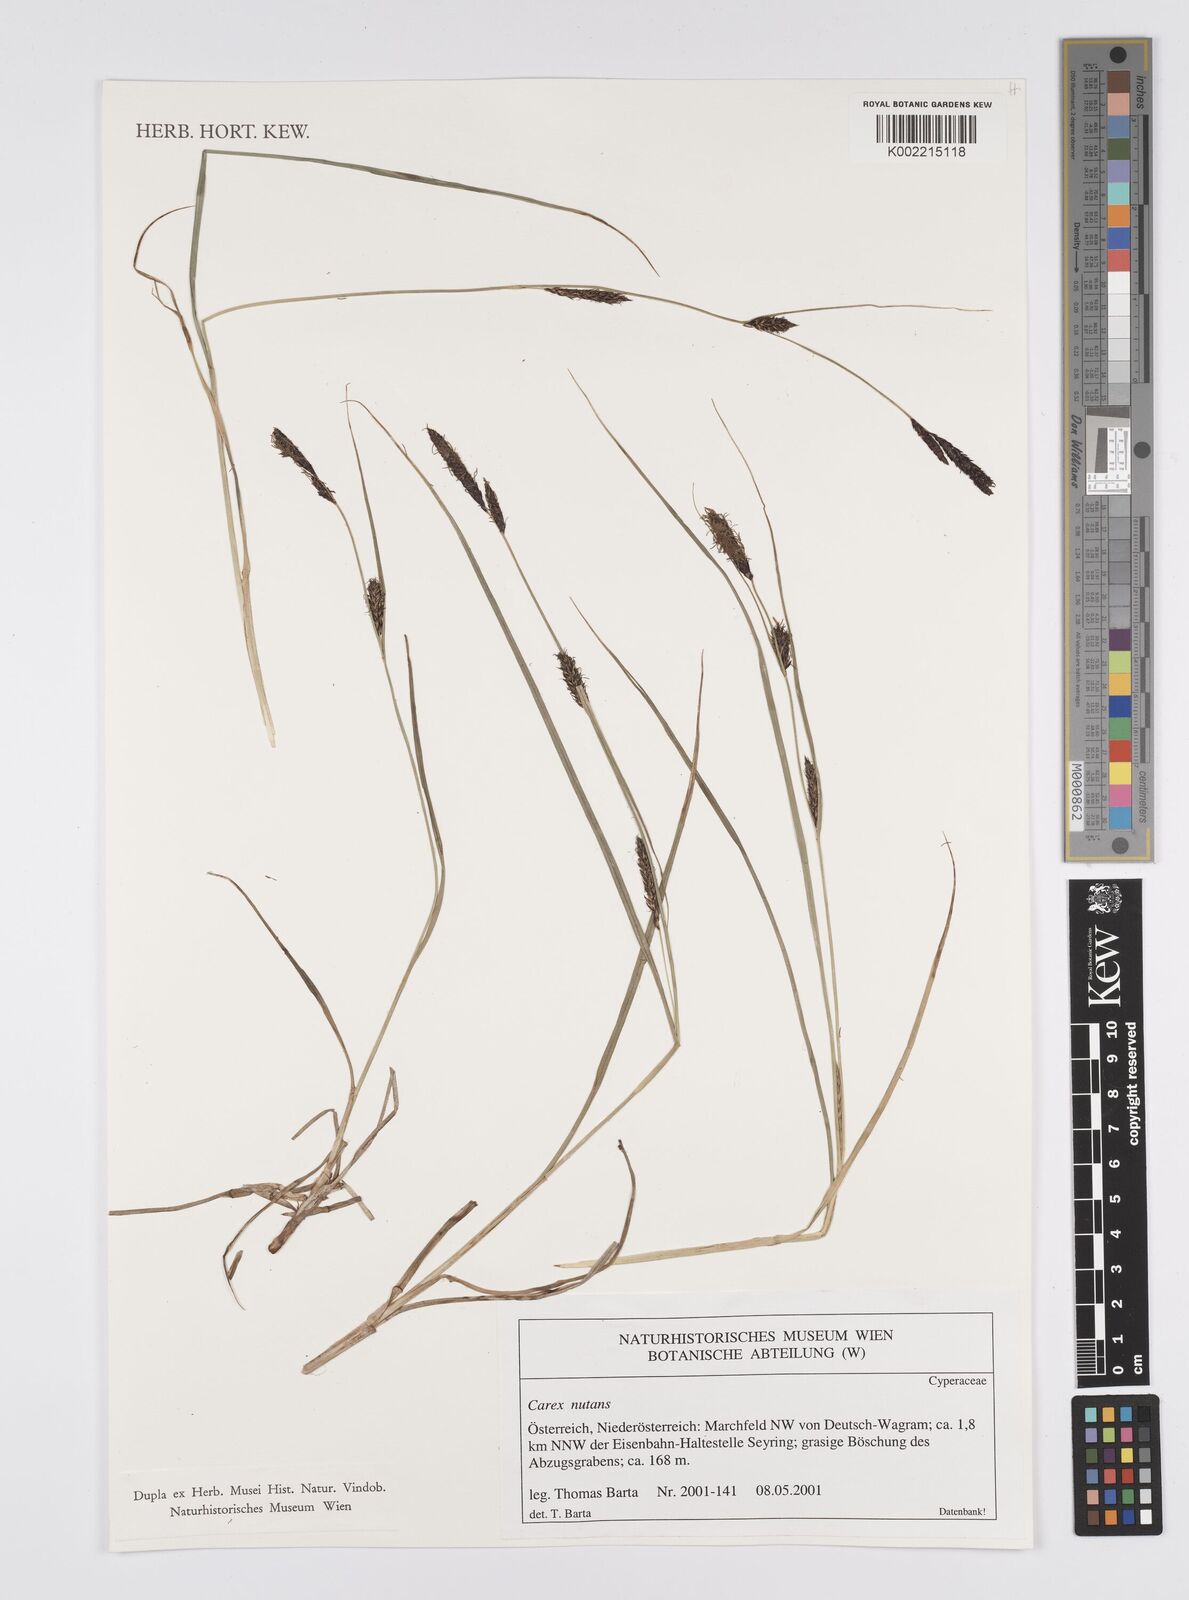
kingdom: Plantae
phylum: Tracheophyta
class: Liliopsida
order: Poales
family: Cyperaceae
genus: Carex
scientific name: Carex melanostachya
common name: Black-spiked sedge
